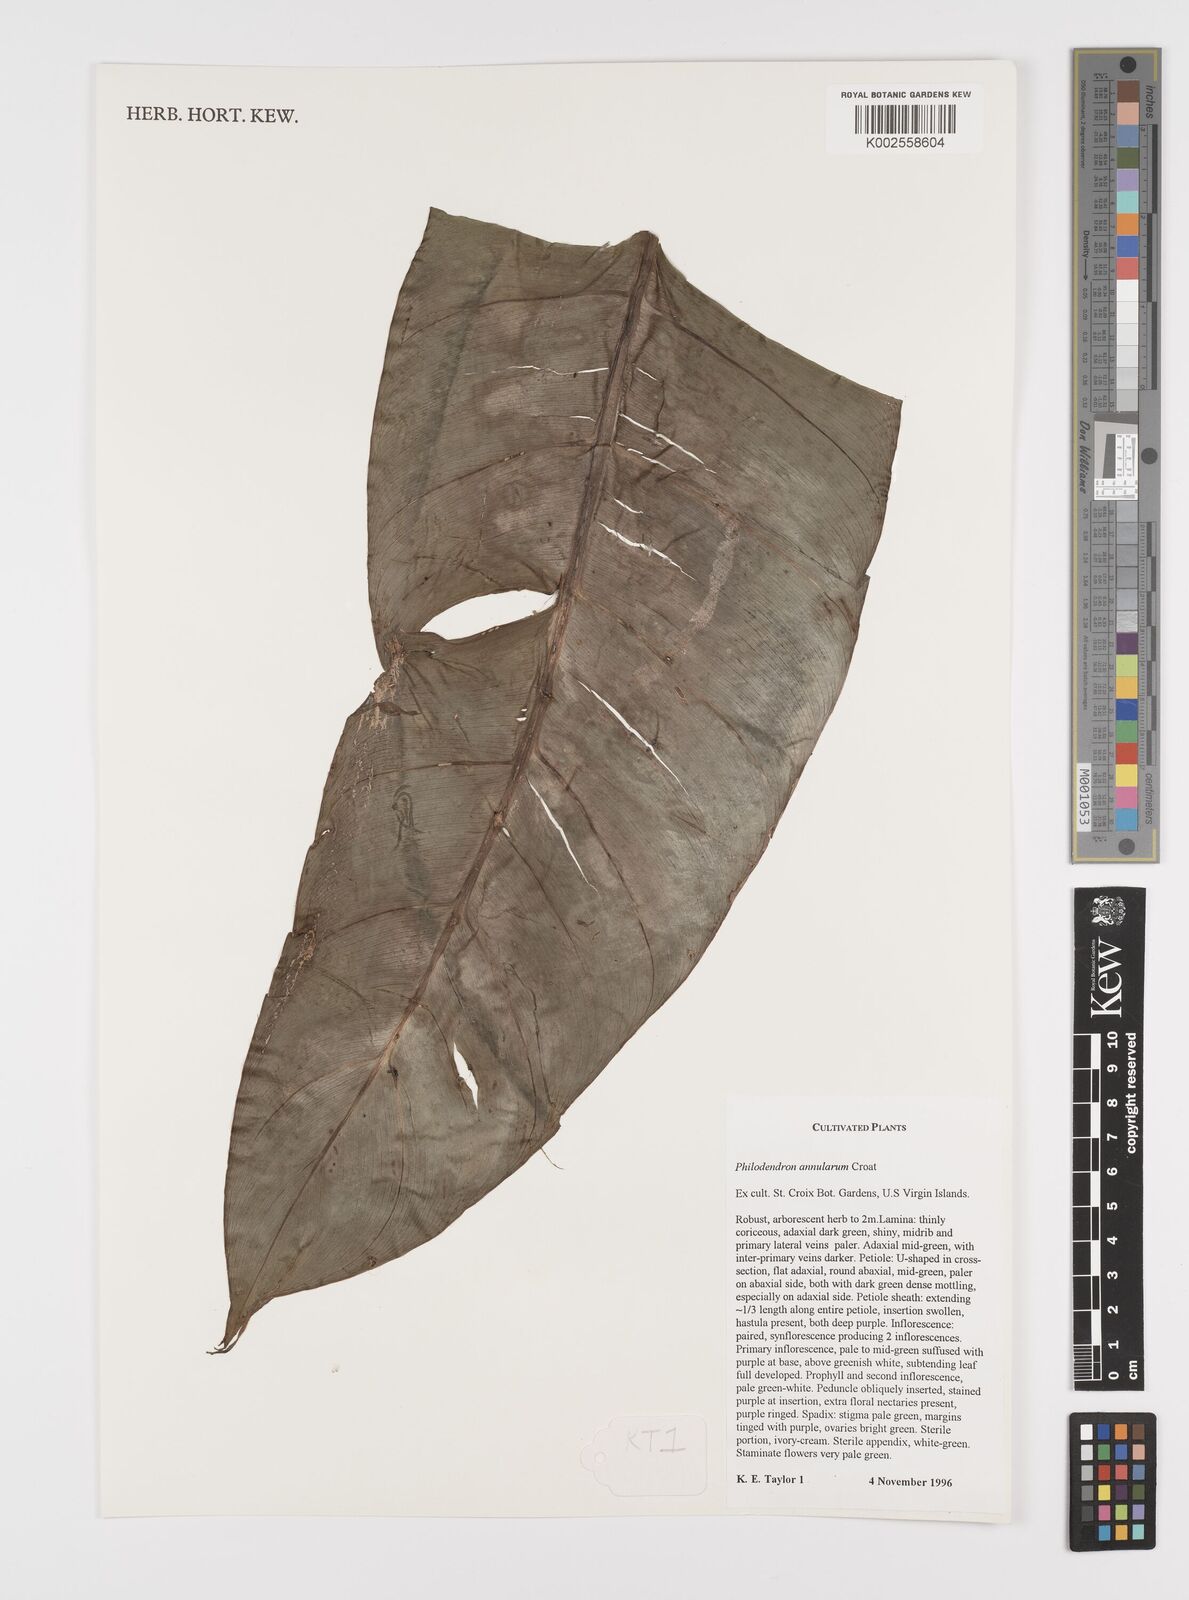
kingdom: Plantae
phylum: Tracheophyta
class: Liliopsida
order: Alismatales
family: Araceae
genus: Philodendron
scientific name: Philodendron annulatum
